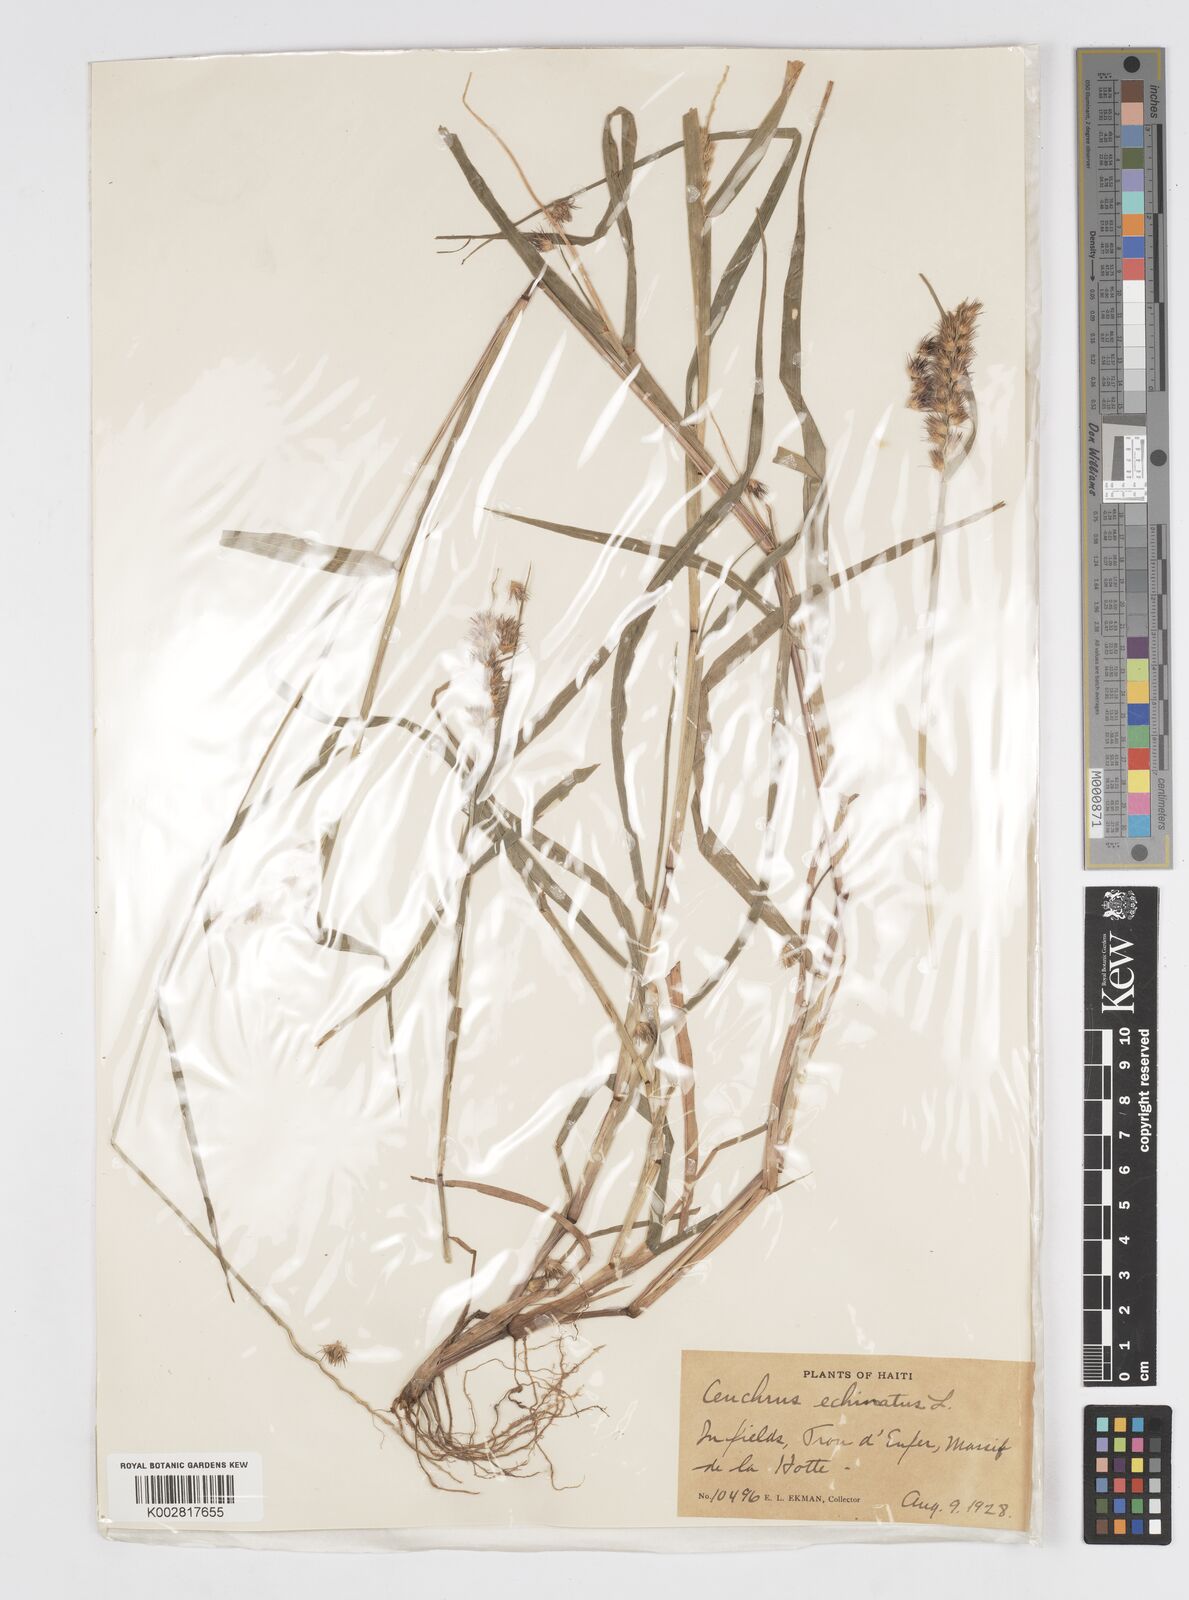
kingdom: Plantae
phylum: Tracheophyta
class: Liliopsida
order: Poales
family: Poaceae
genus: Cenchrus
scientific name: Cenchrus brownii
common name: Slim-bristle sandbur
